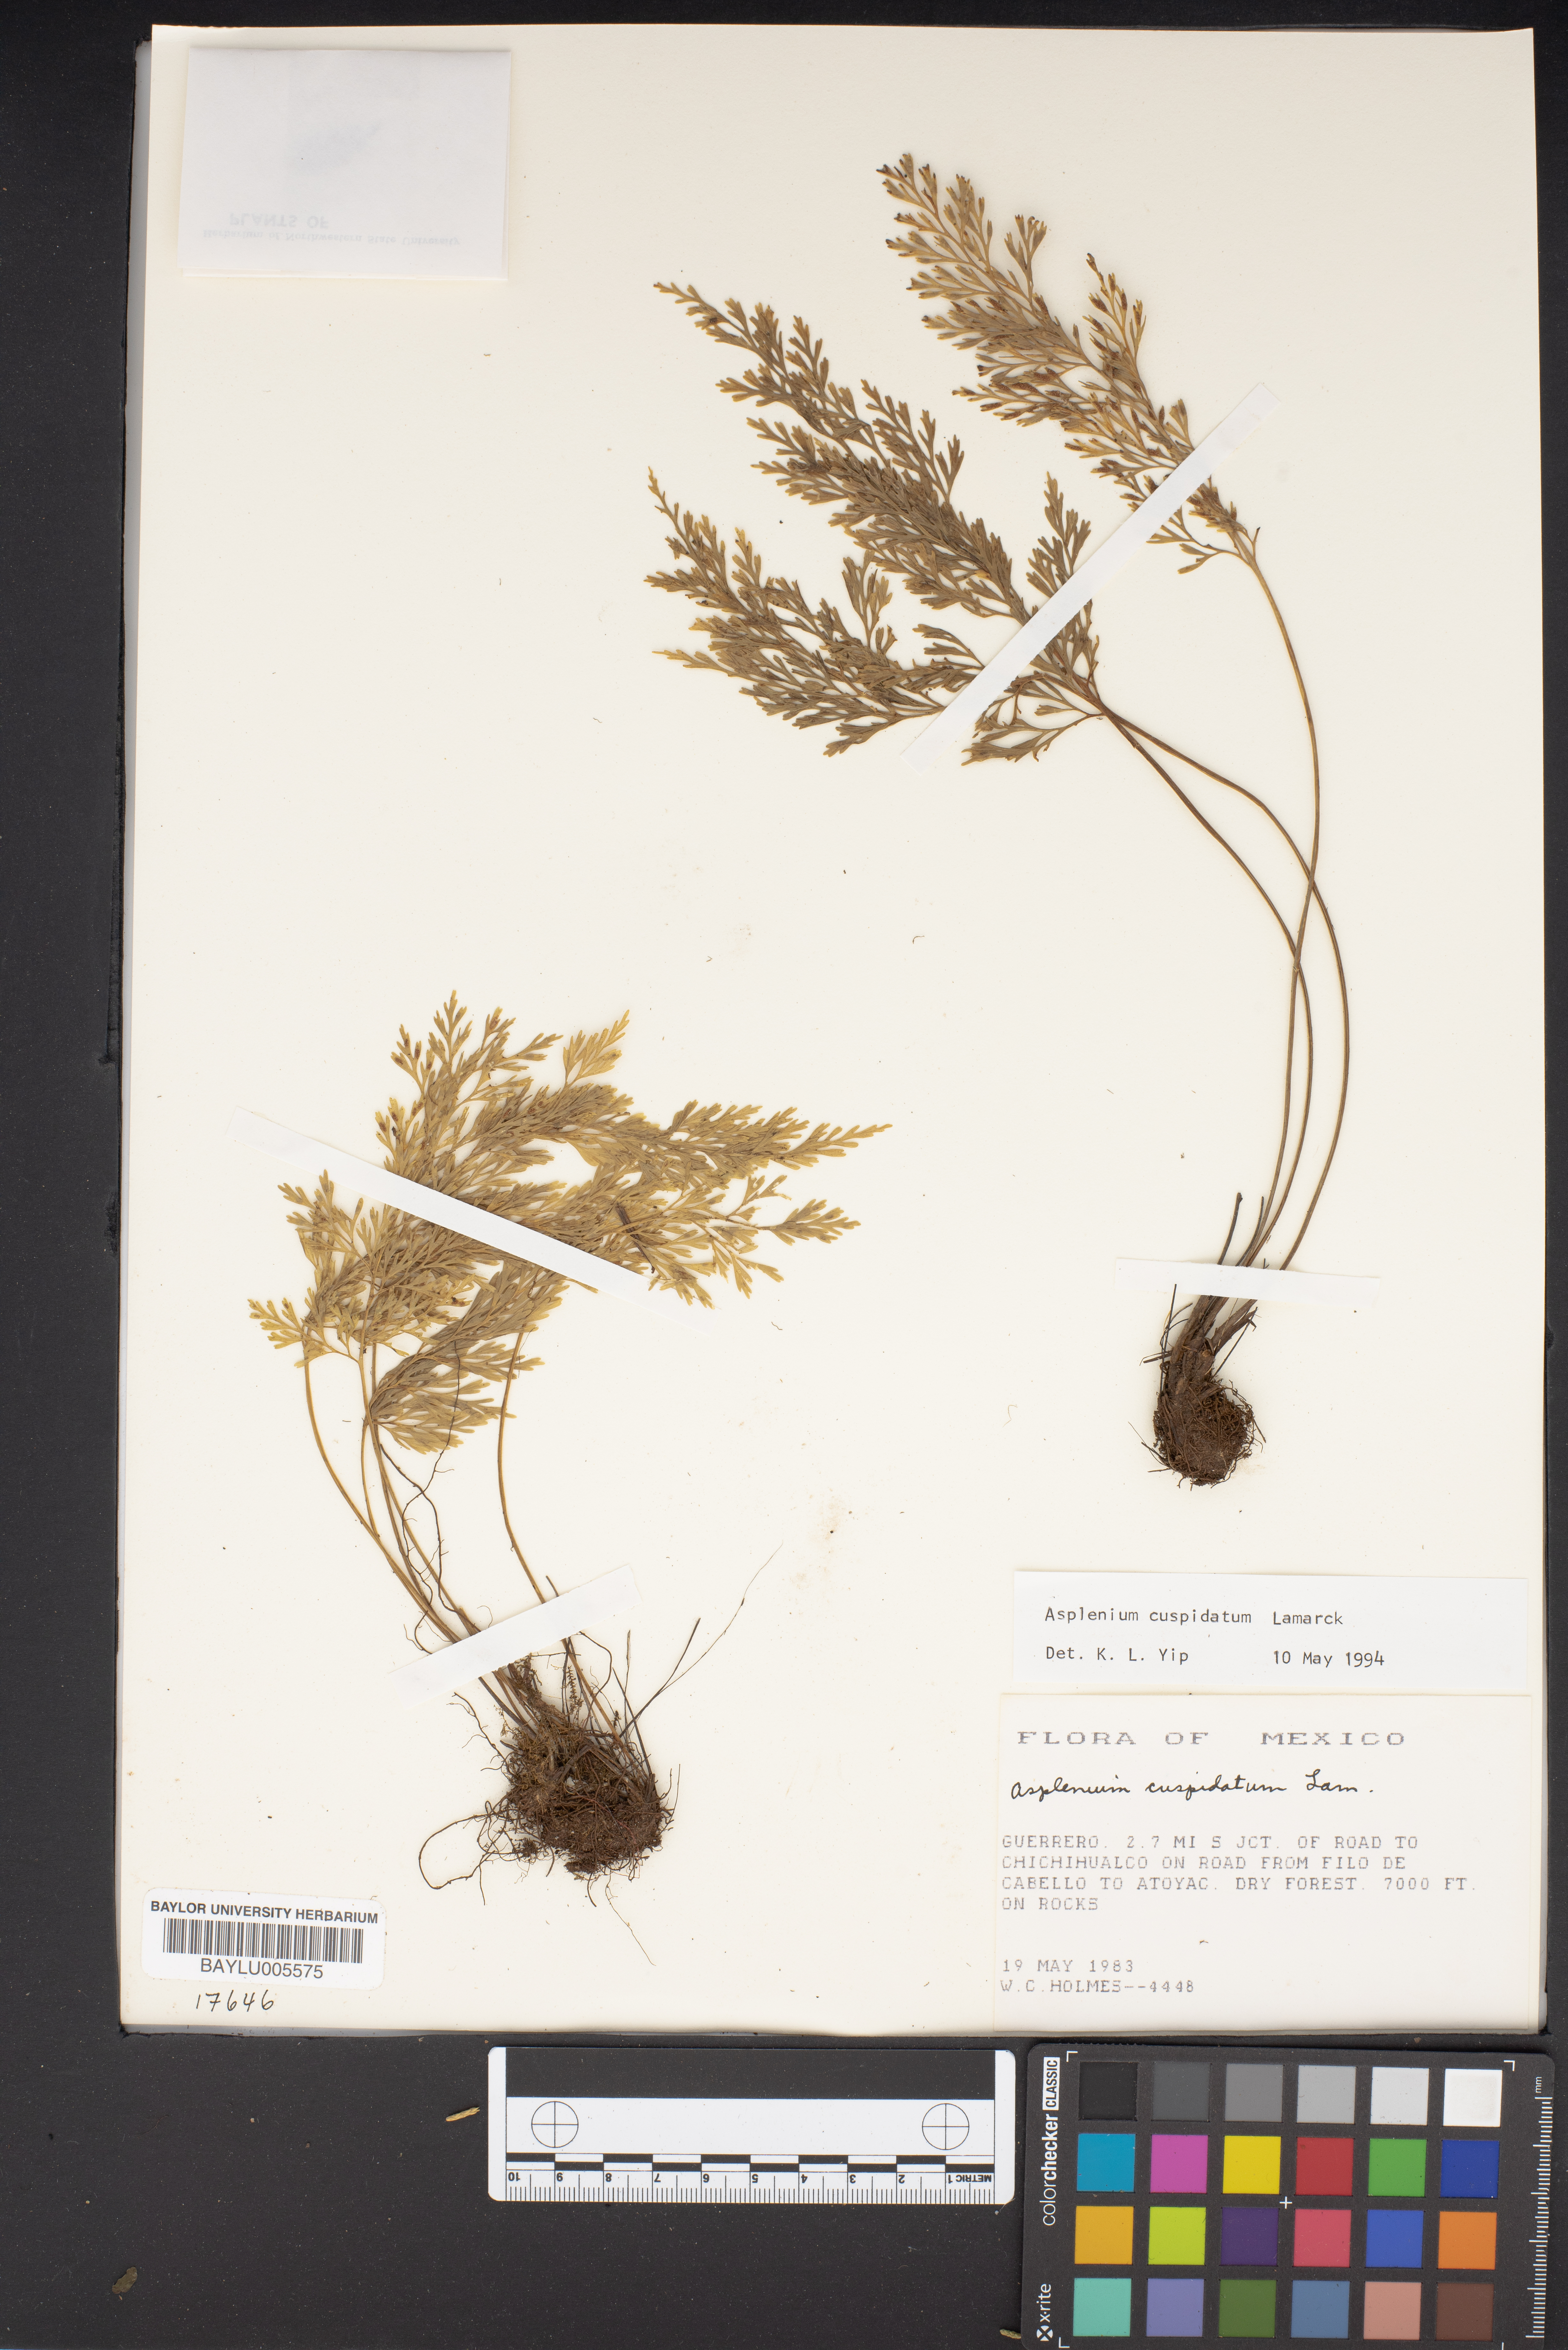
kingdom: Plantae
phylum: Tracheophyta
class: Polypodiopsida
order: Polypodiales
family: Aspleniaceae
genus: Asplenium
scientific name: Asplenium cuspidatum
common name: Eared spleenwort
